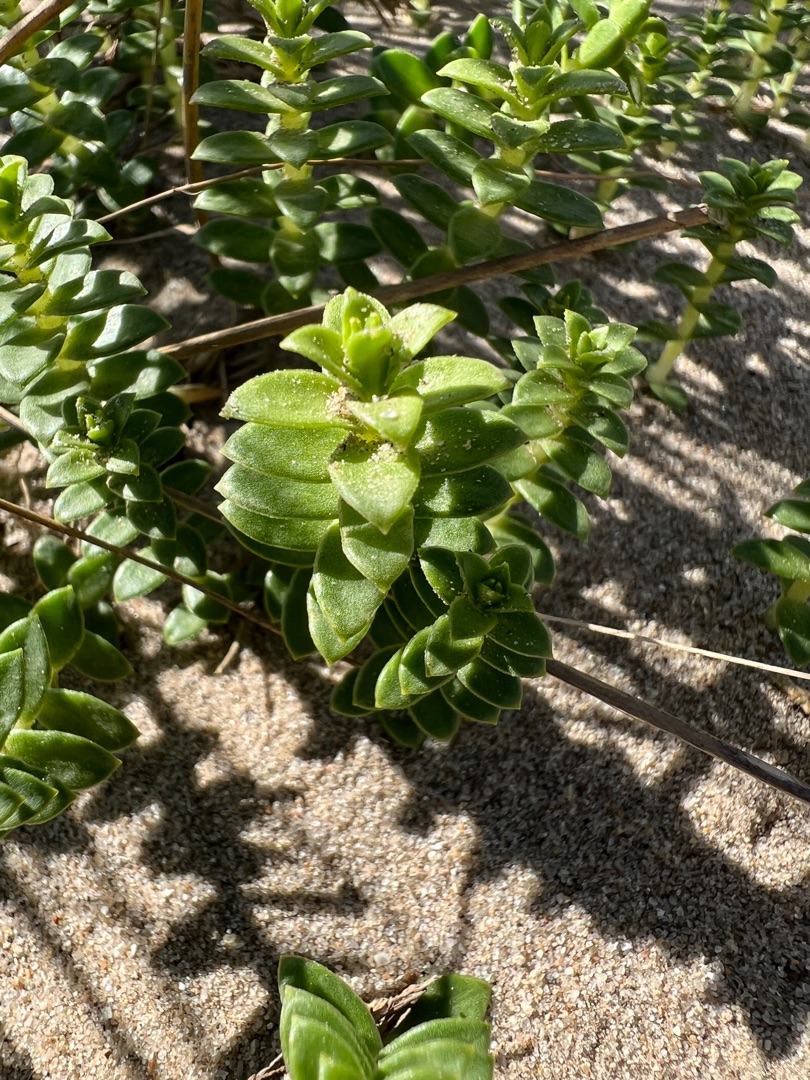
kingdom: Plantae
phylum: Tracheophyta
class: Magnoliopsida
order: Caryophyllales
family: Caryophyllaceae
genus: Honckenya
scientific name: Honckenya peploides
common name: Strandarve
